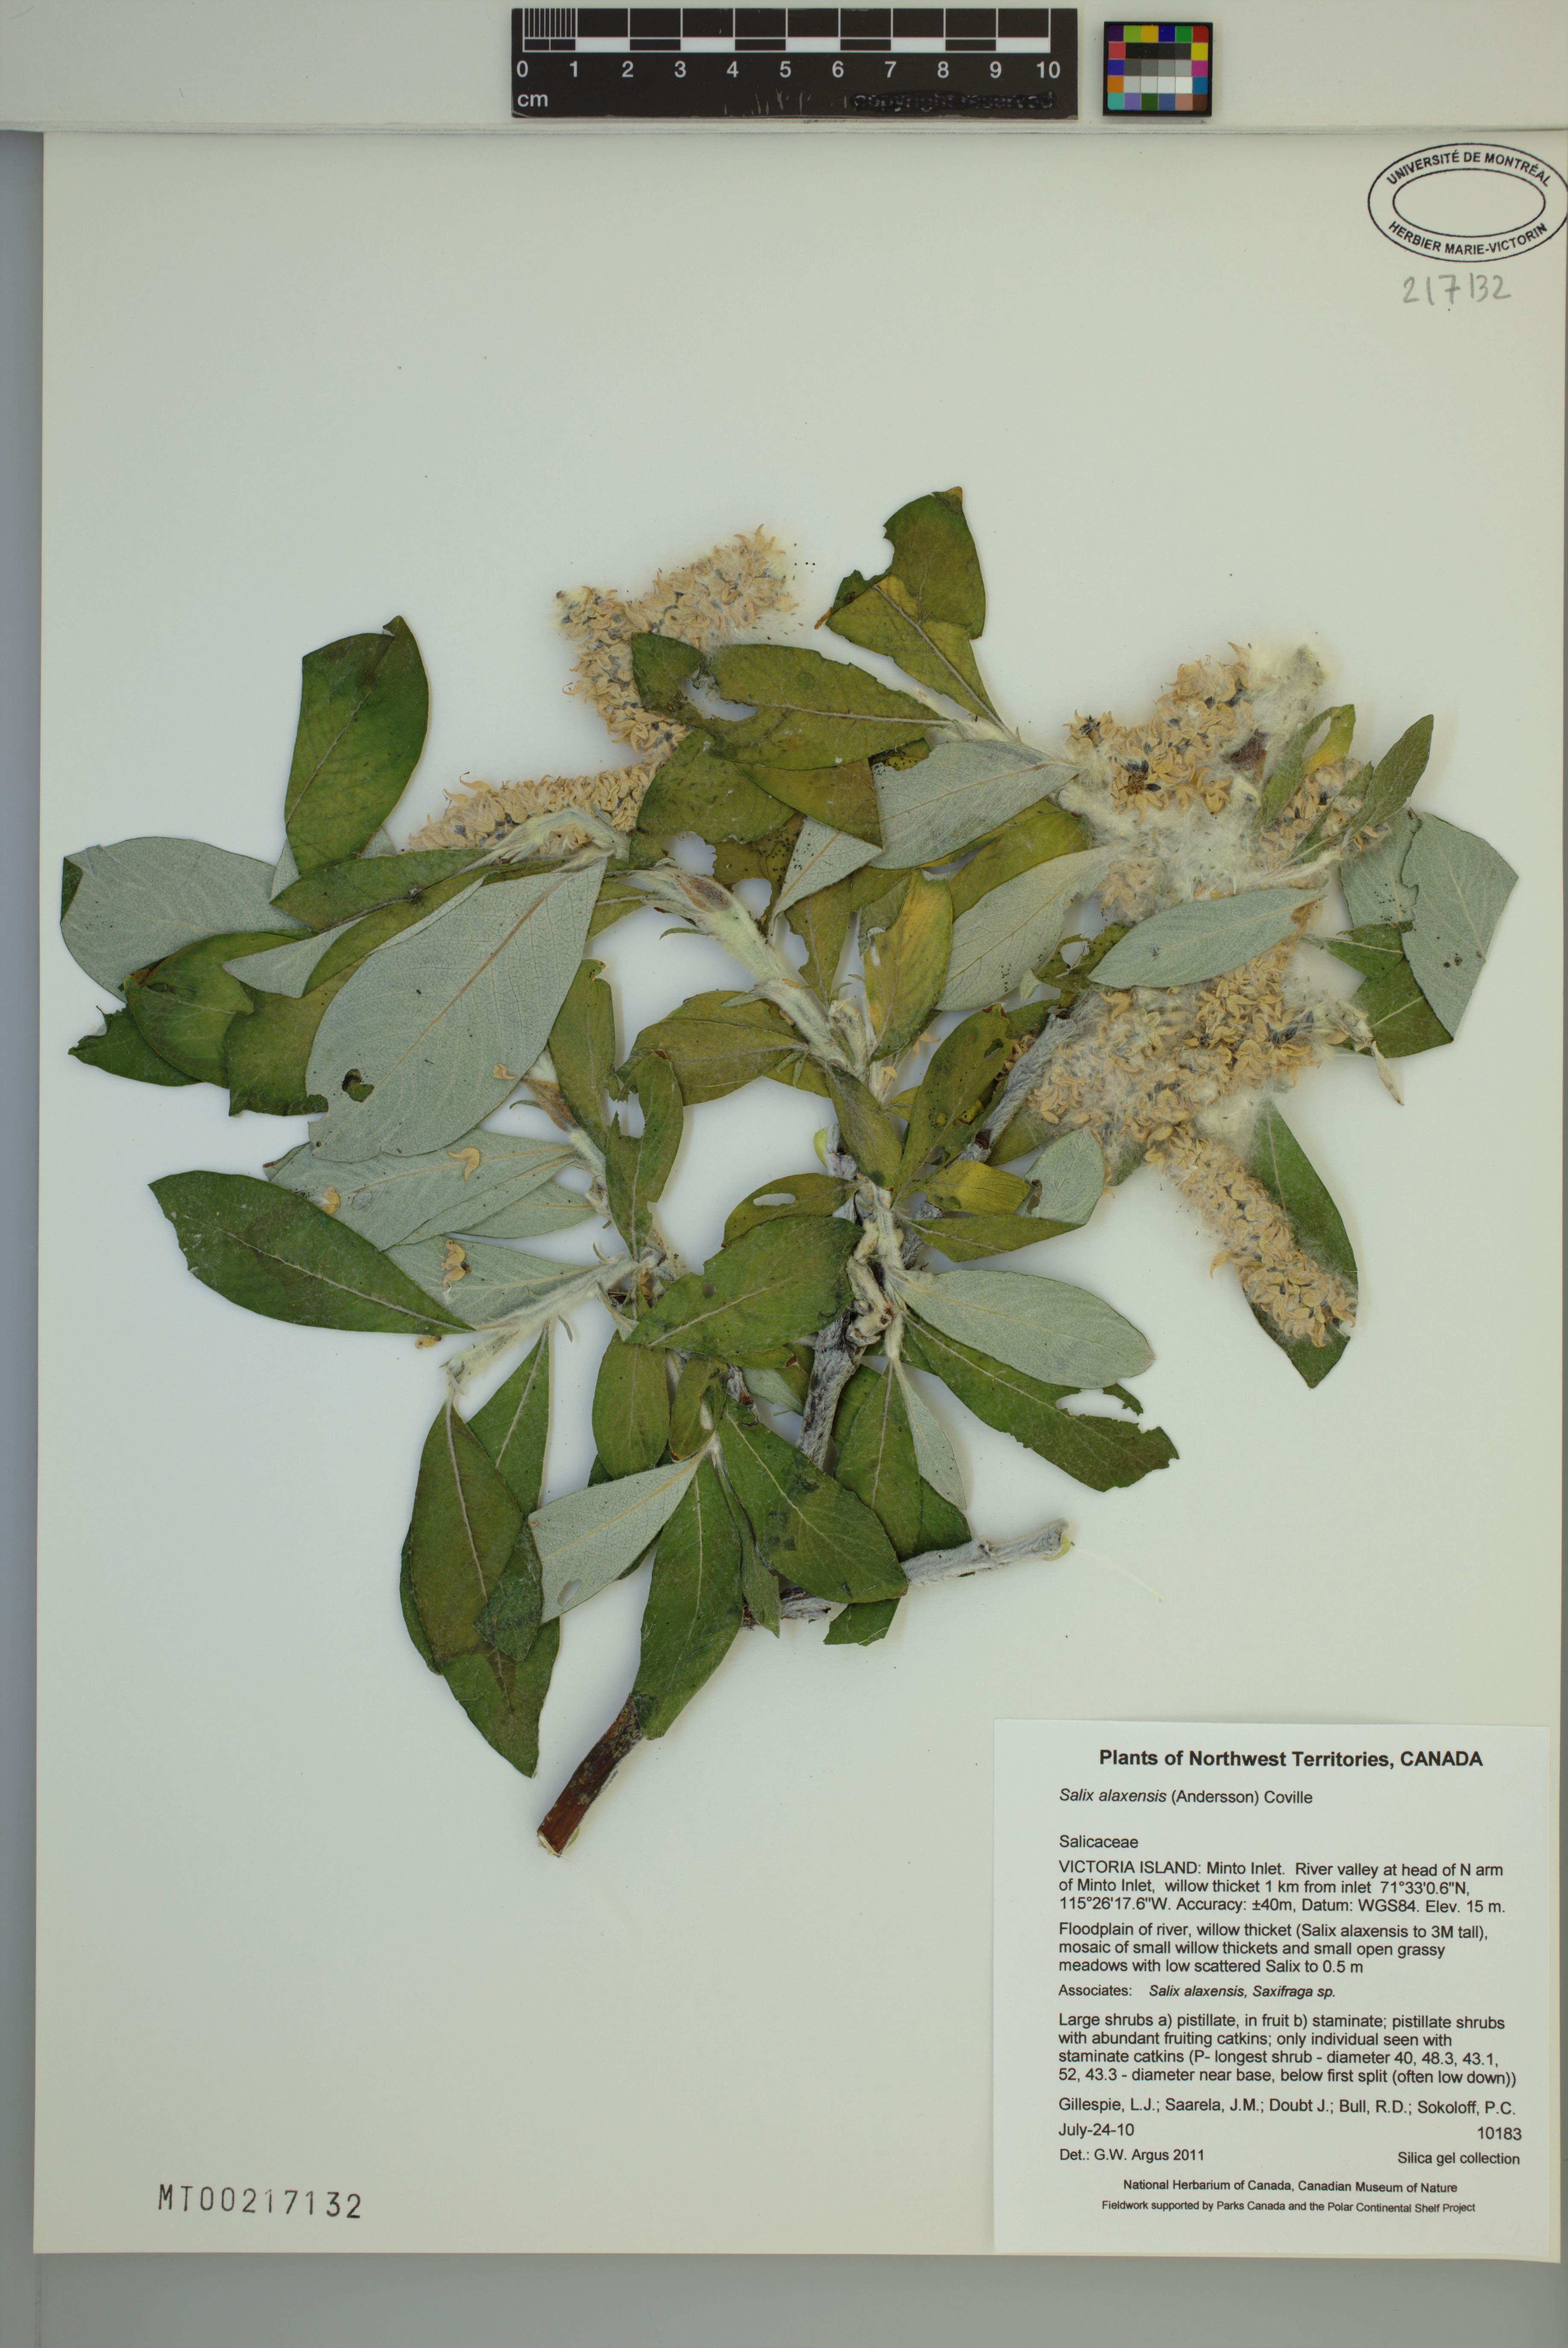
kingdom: Plantae
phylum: Tracheophyta
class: Magnoliopsida
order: Malpighiales
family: Salicaceae
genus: Salix
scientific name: Salix alaxensis
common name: Feltleaf willow
